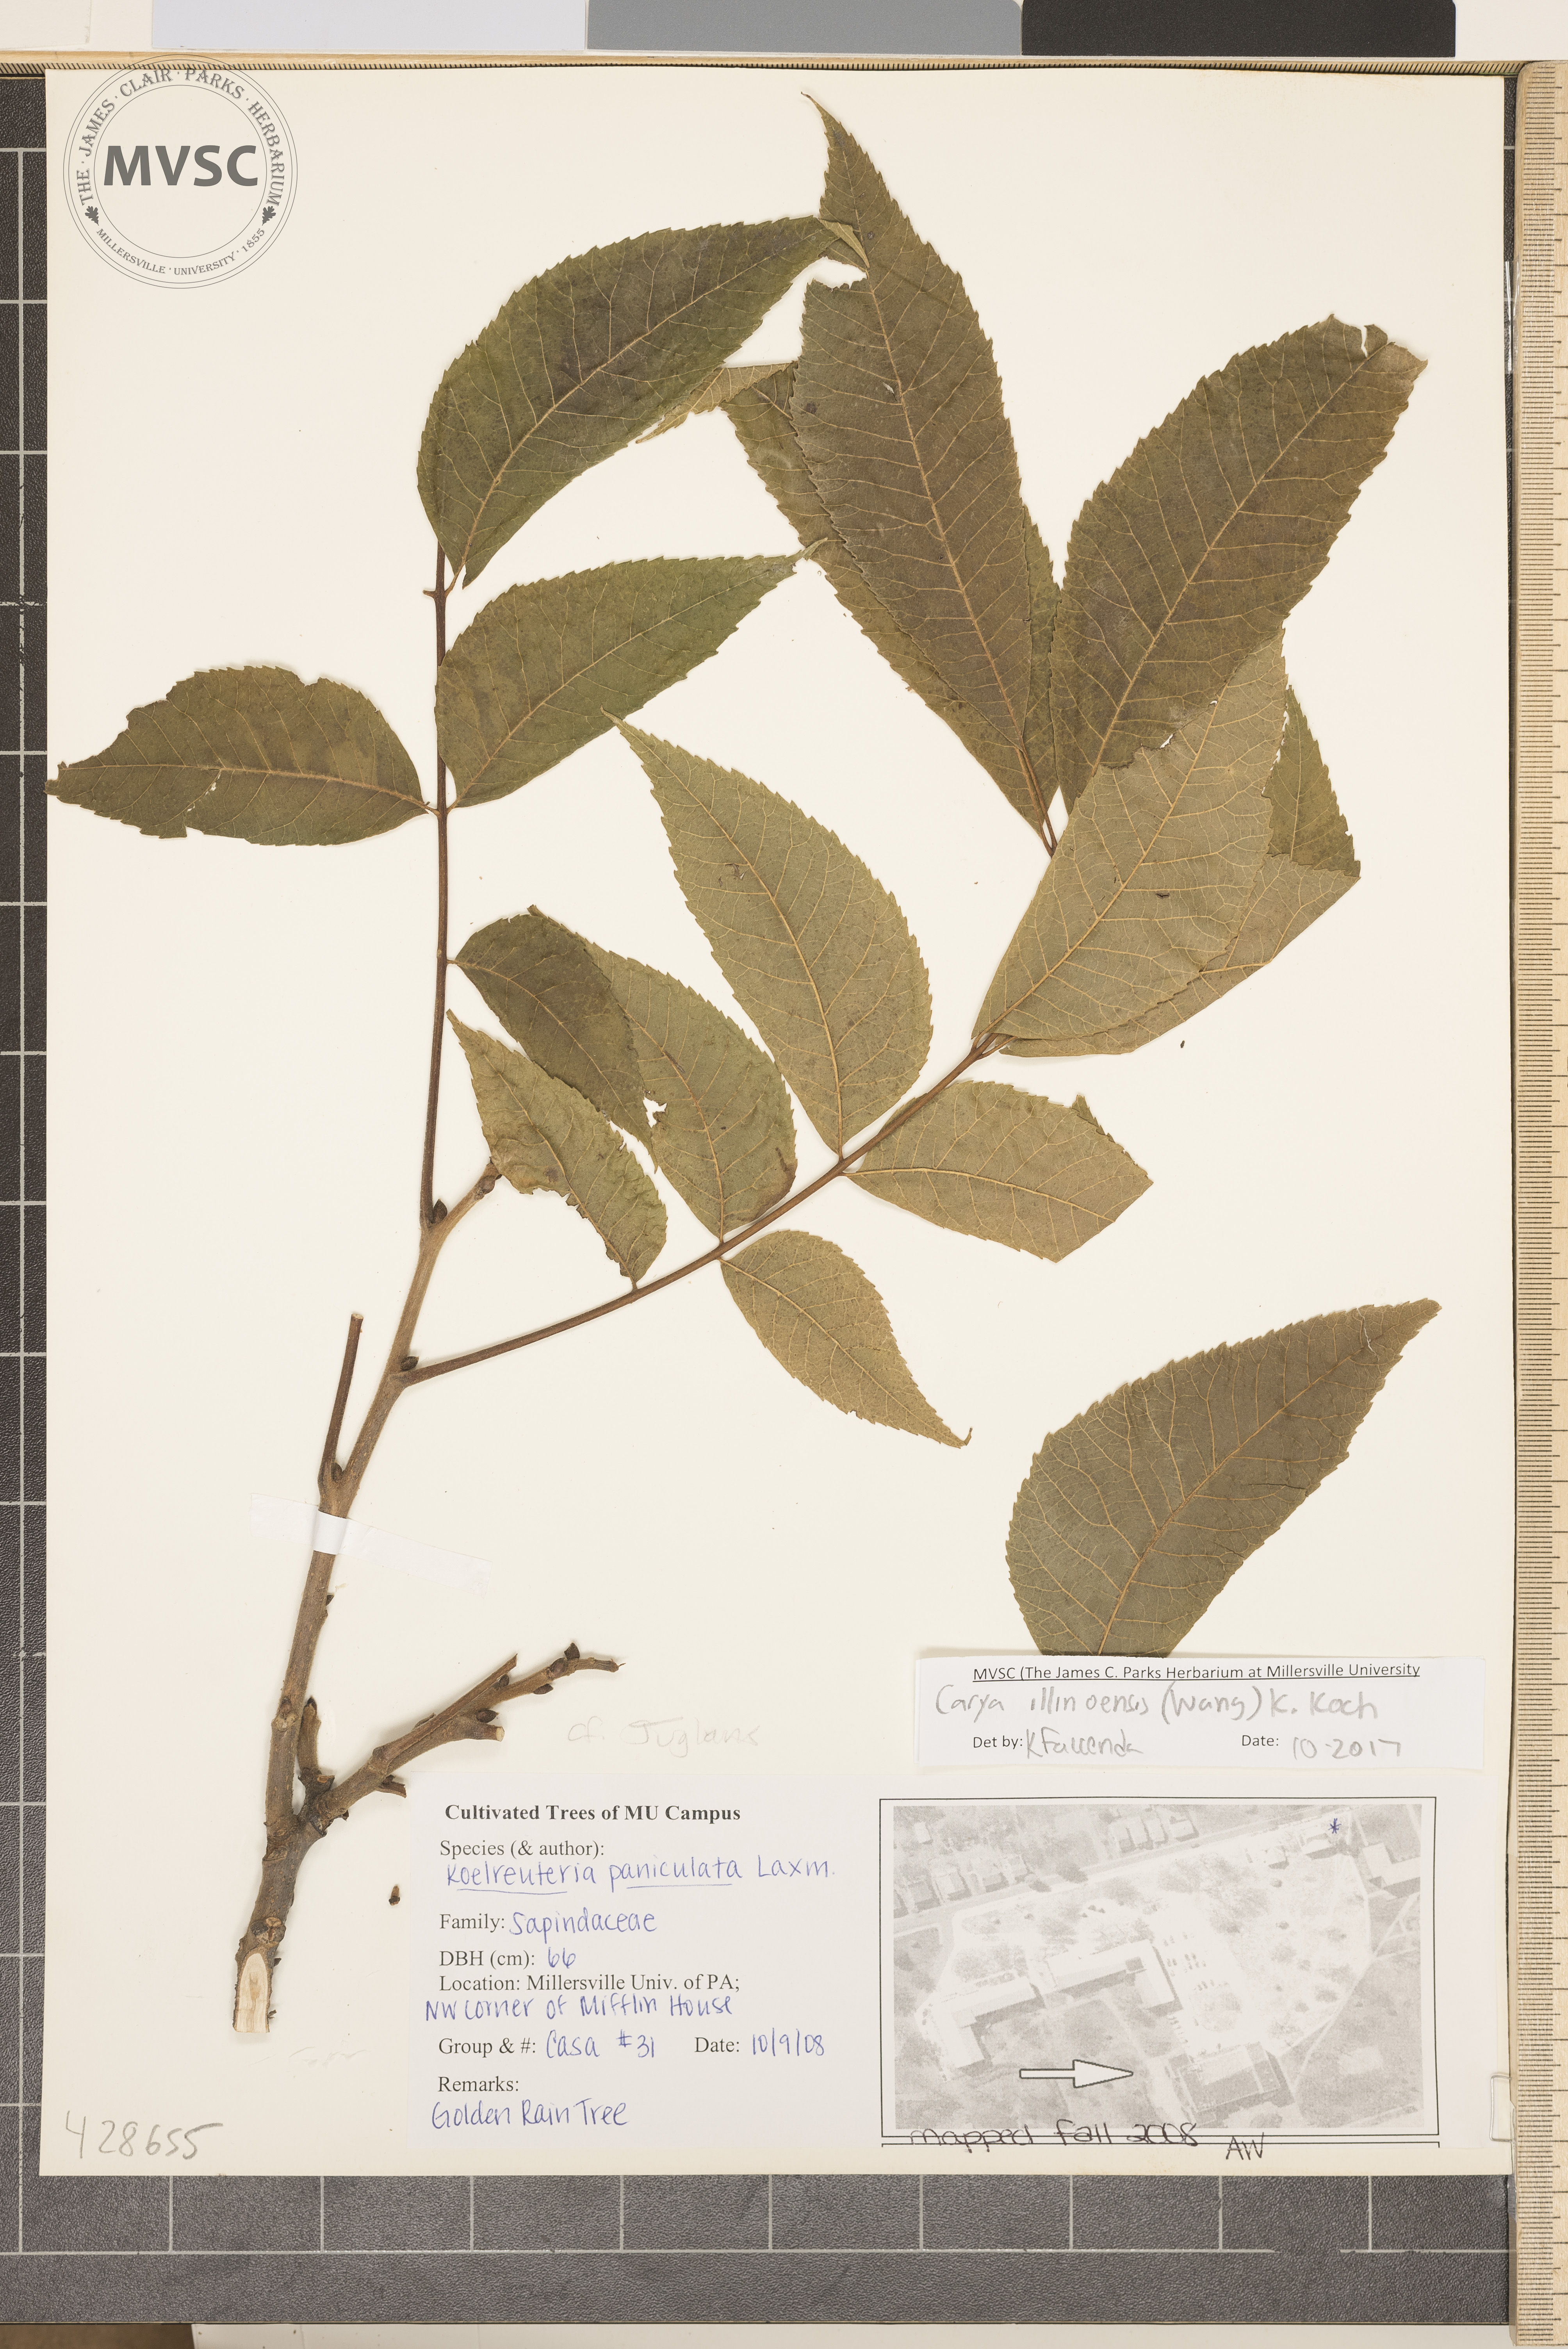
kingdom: Plantae
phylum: Tracheophyta
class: Magnoliopsida
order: Fagales
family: Juglandaceae
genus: Carya
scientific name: Carya illinoinensis
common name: Pecan
